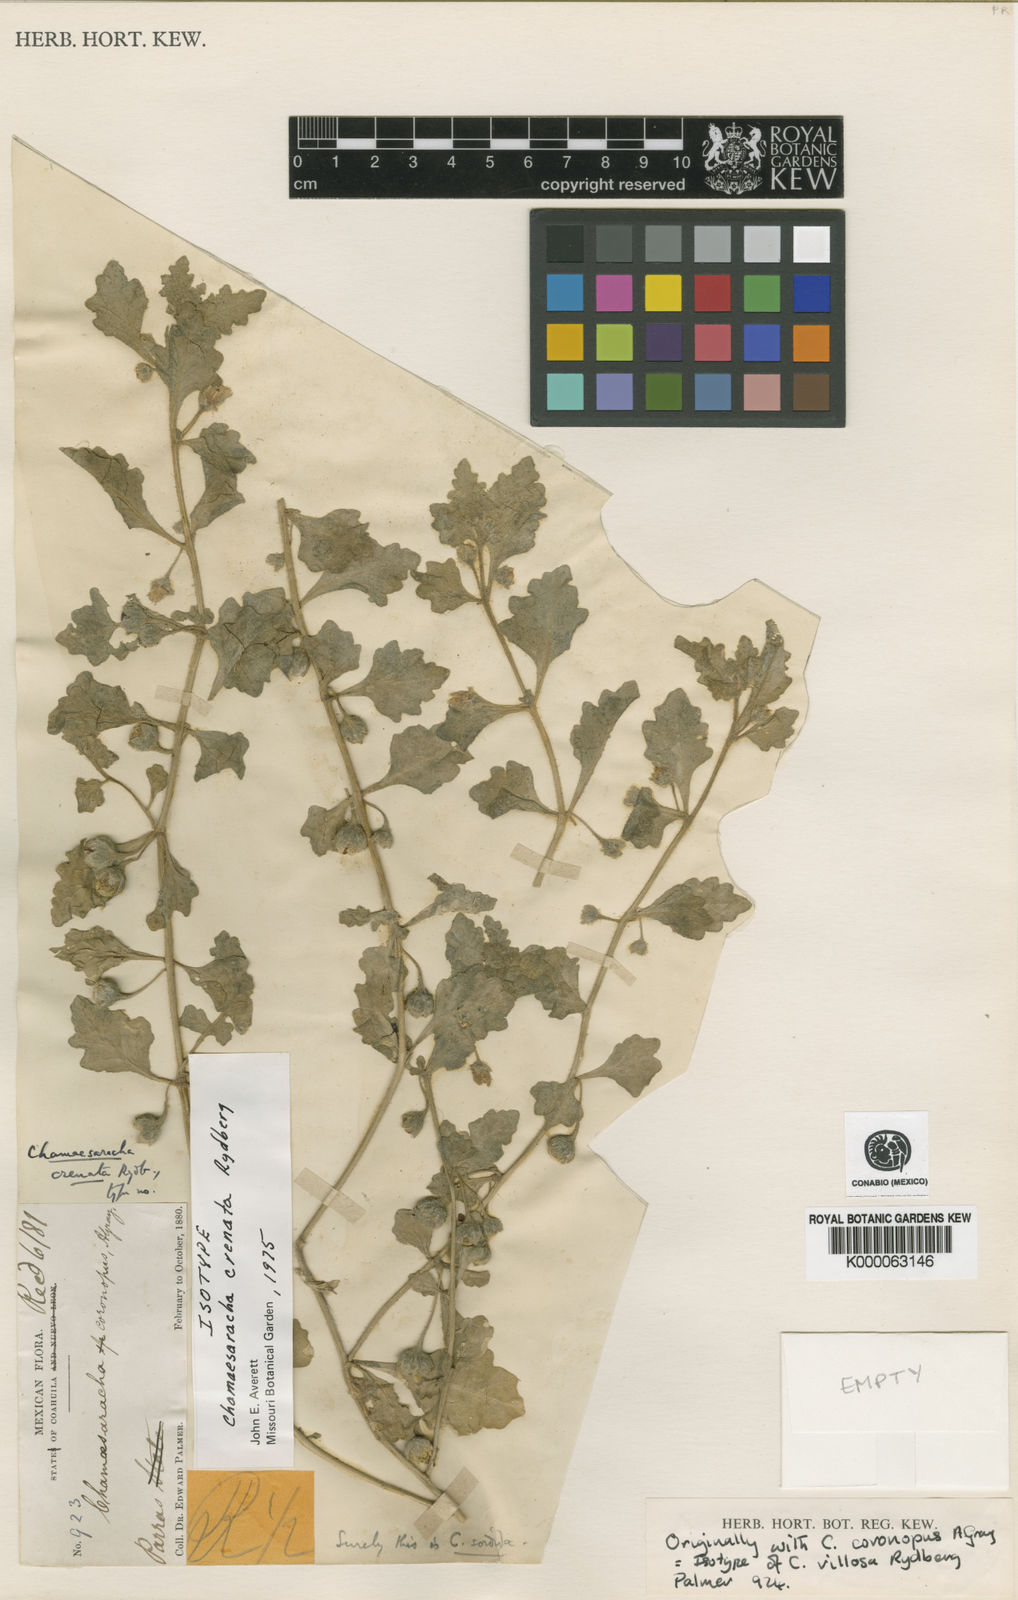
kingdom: Plantae
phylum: Tracheophyta
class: Magnoliopsida
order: Solanales
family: Solanaceae
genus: Chamaesaracha
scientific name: Chamaesaracha crenata
